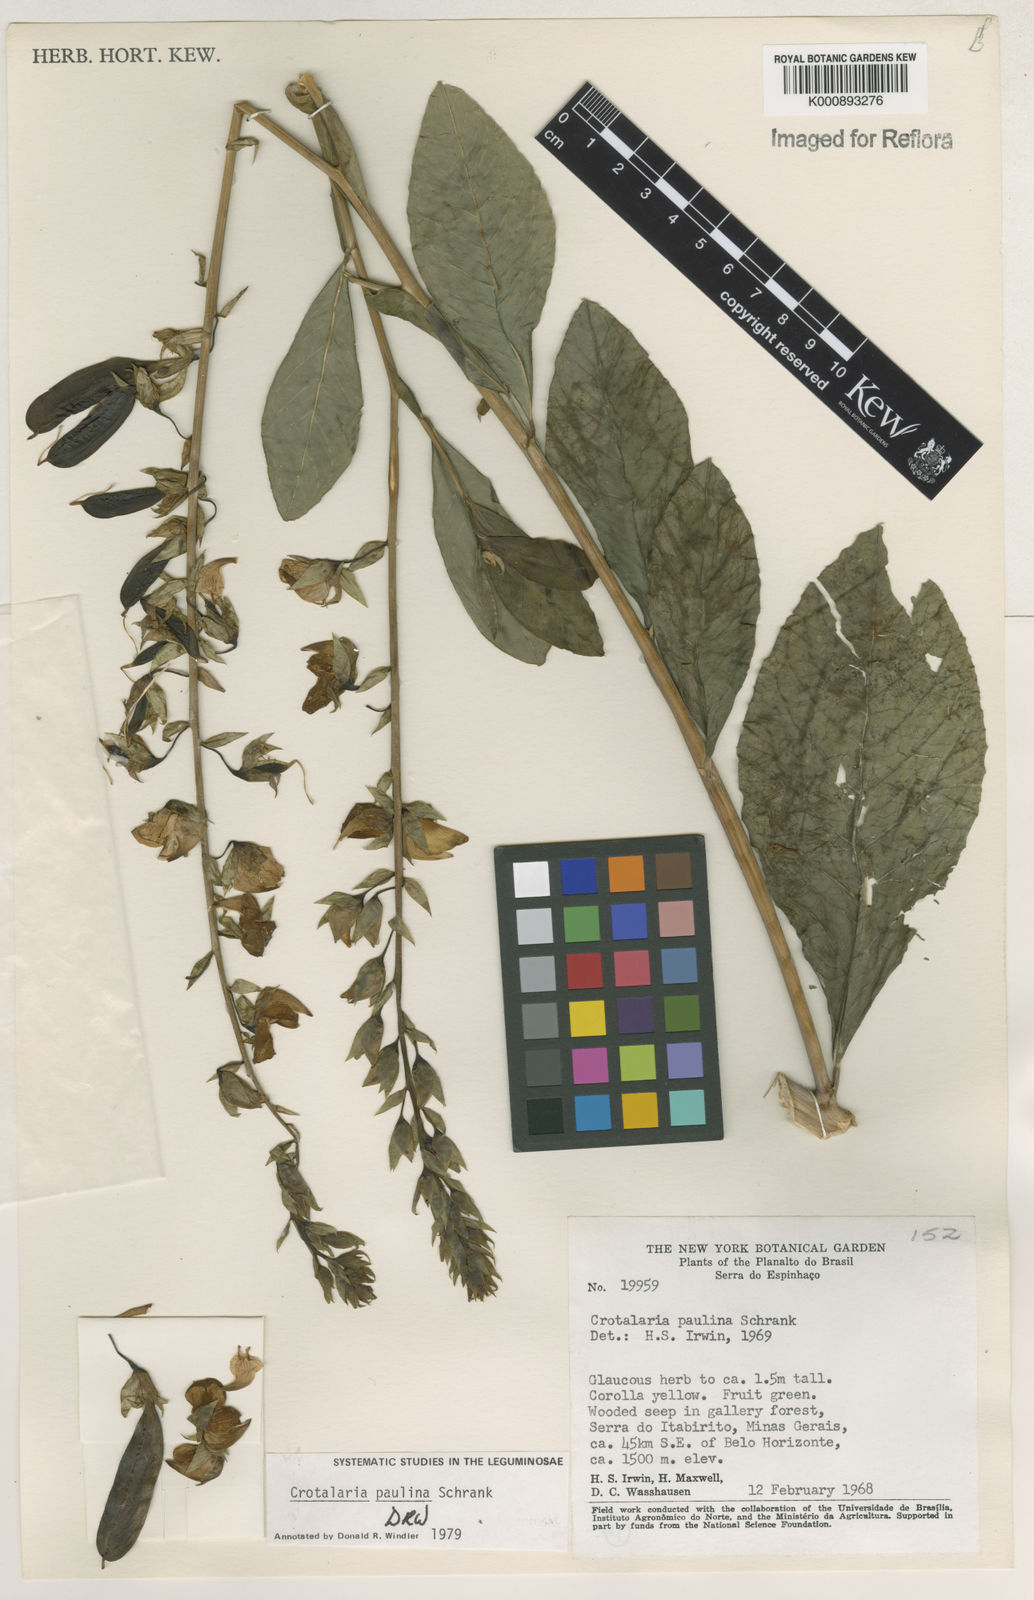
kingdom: Plantae
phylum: Tracheophyta
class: Magnoliopsida
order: Fabales
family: Fabaceae
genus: Crotalaria
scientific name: Crotalaria paulina
